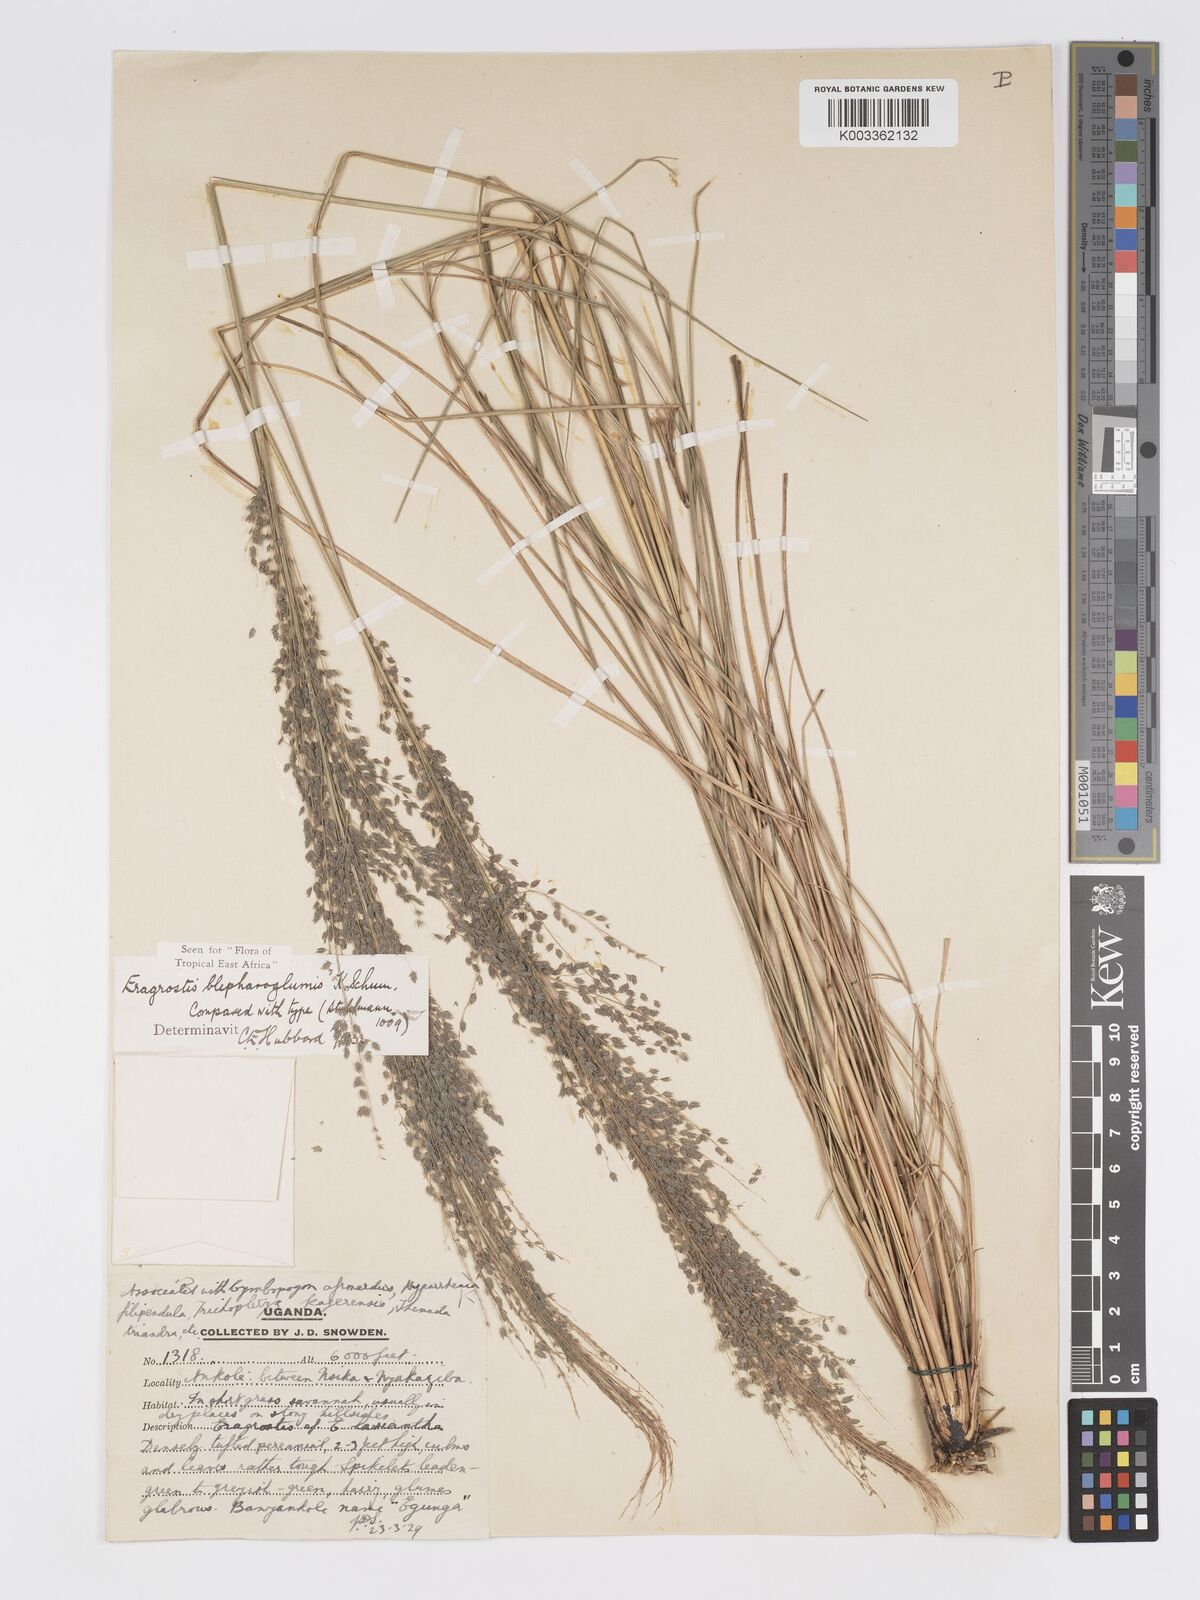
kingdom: Plantae
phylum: Tracheophyta
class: Liliopsida
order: Poales
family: Poaceae
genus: Eragrostis
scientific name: Eragrostis olivacea
